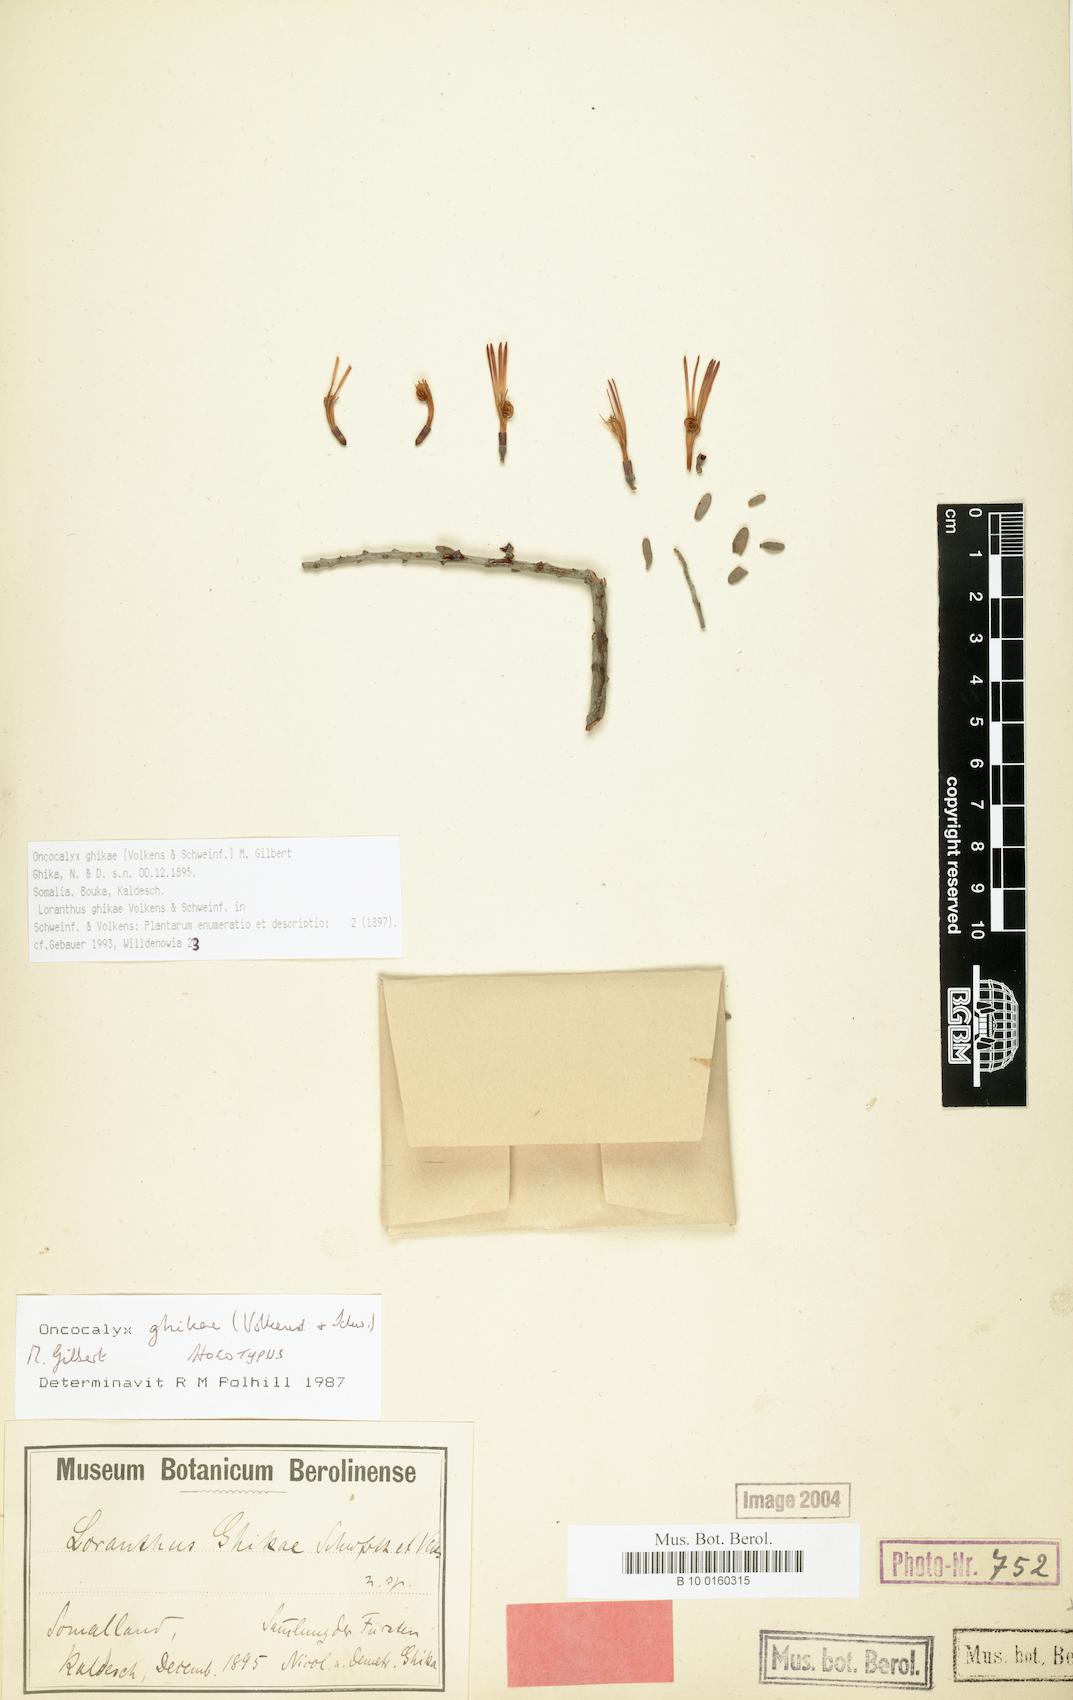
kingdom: Plantae
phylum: Tracheophyta
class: Magnoliopsida
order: Santalales
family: Loranthaceae
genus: Oncocalyx
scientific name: Oncocalyx ghikae
